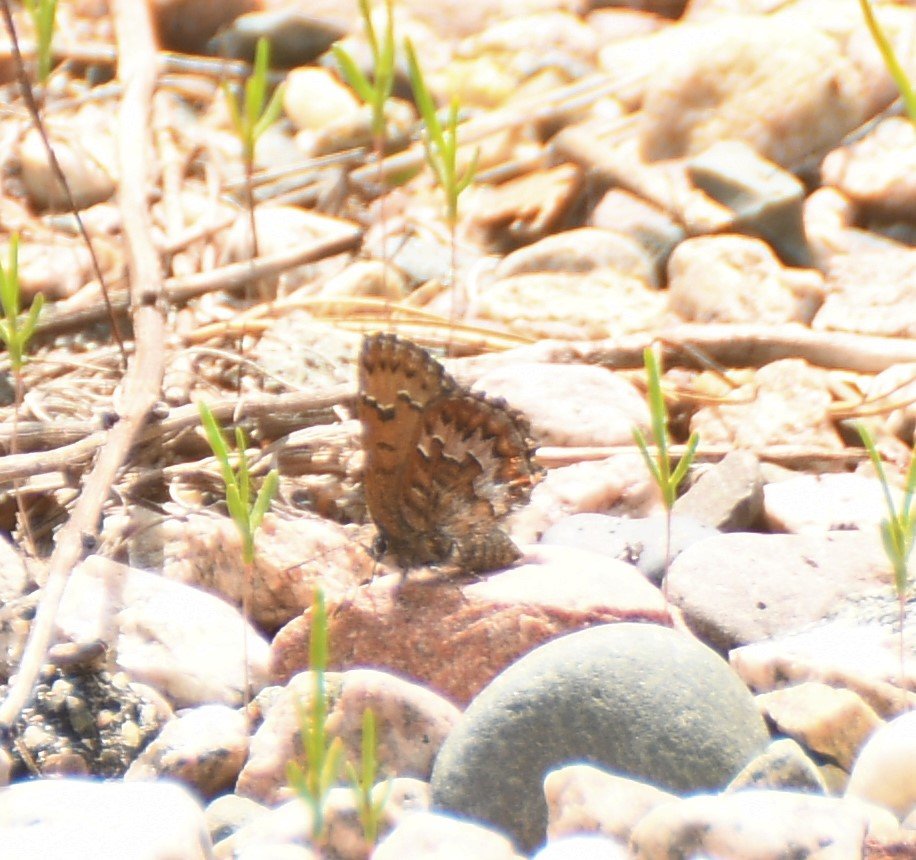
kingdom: Animalia
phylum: Arthropoda
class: Insecta
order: Lepidoptera
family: Lycaenidae
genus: Incisalia
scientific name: Incisalia niphon
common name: Eastern Pine Elfin
